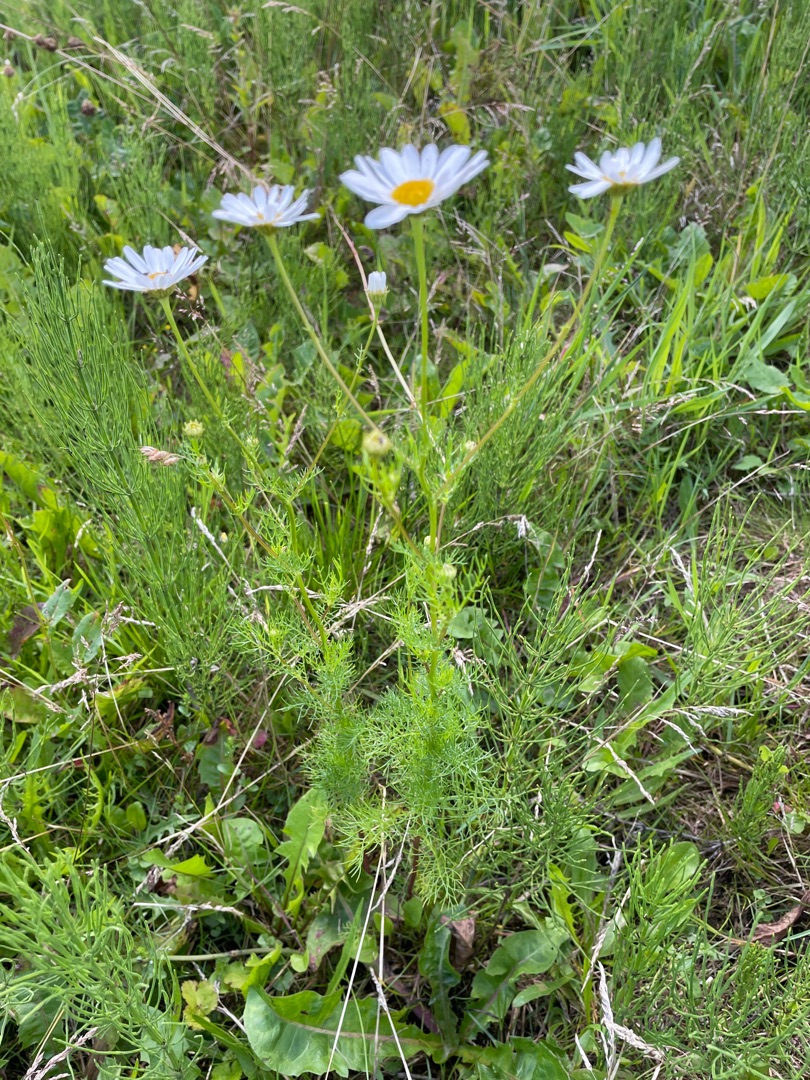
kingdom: Plantae
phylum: Tracheophyta
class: Magnoliopsida
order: Asterales
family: Asteraceae
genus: Tripleurospermum
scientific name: Tripleurospermum inodorum
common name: Lugtløs kamille
